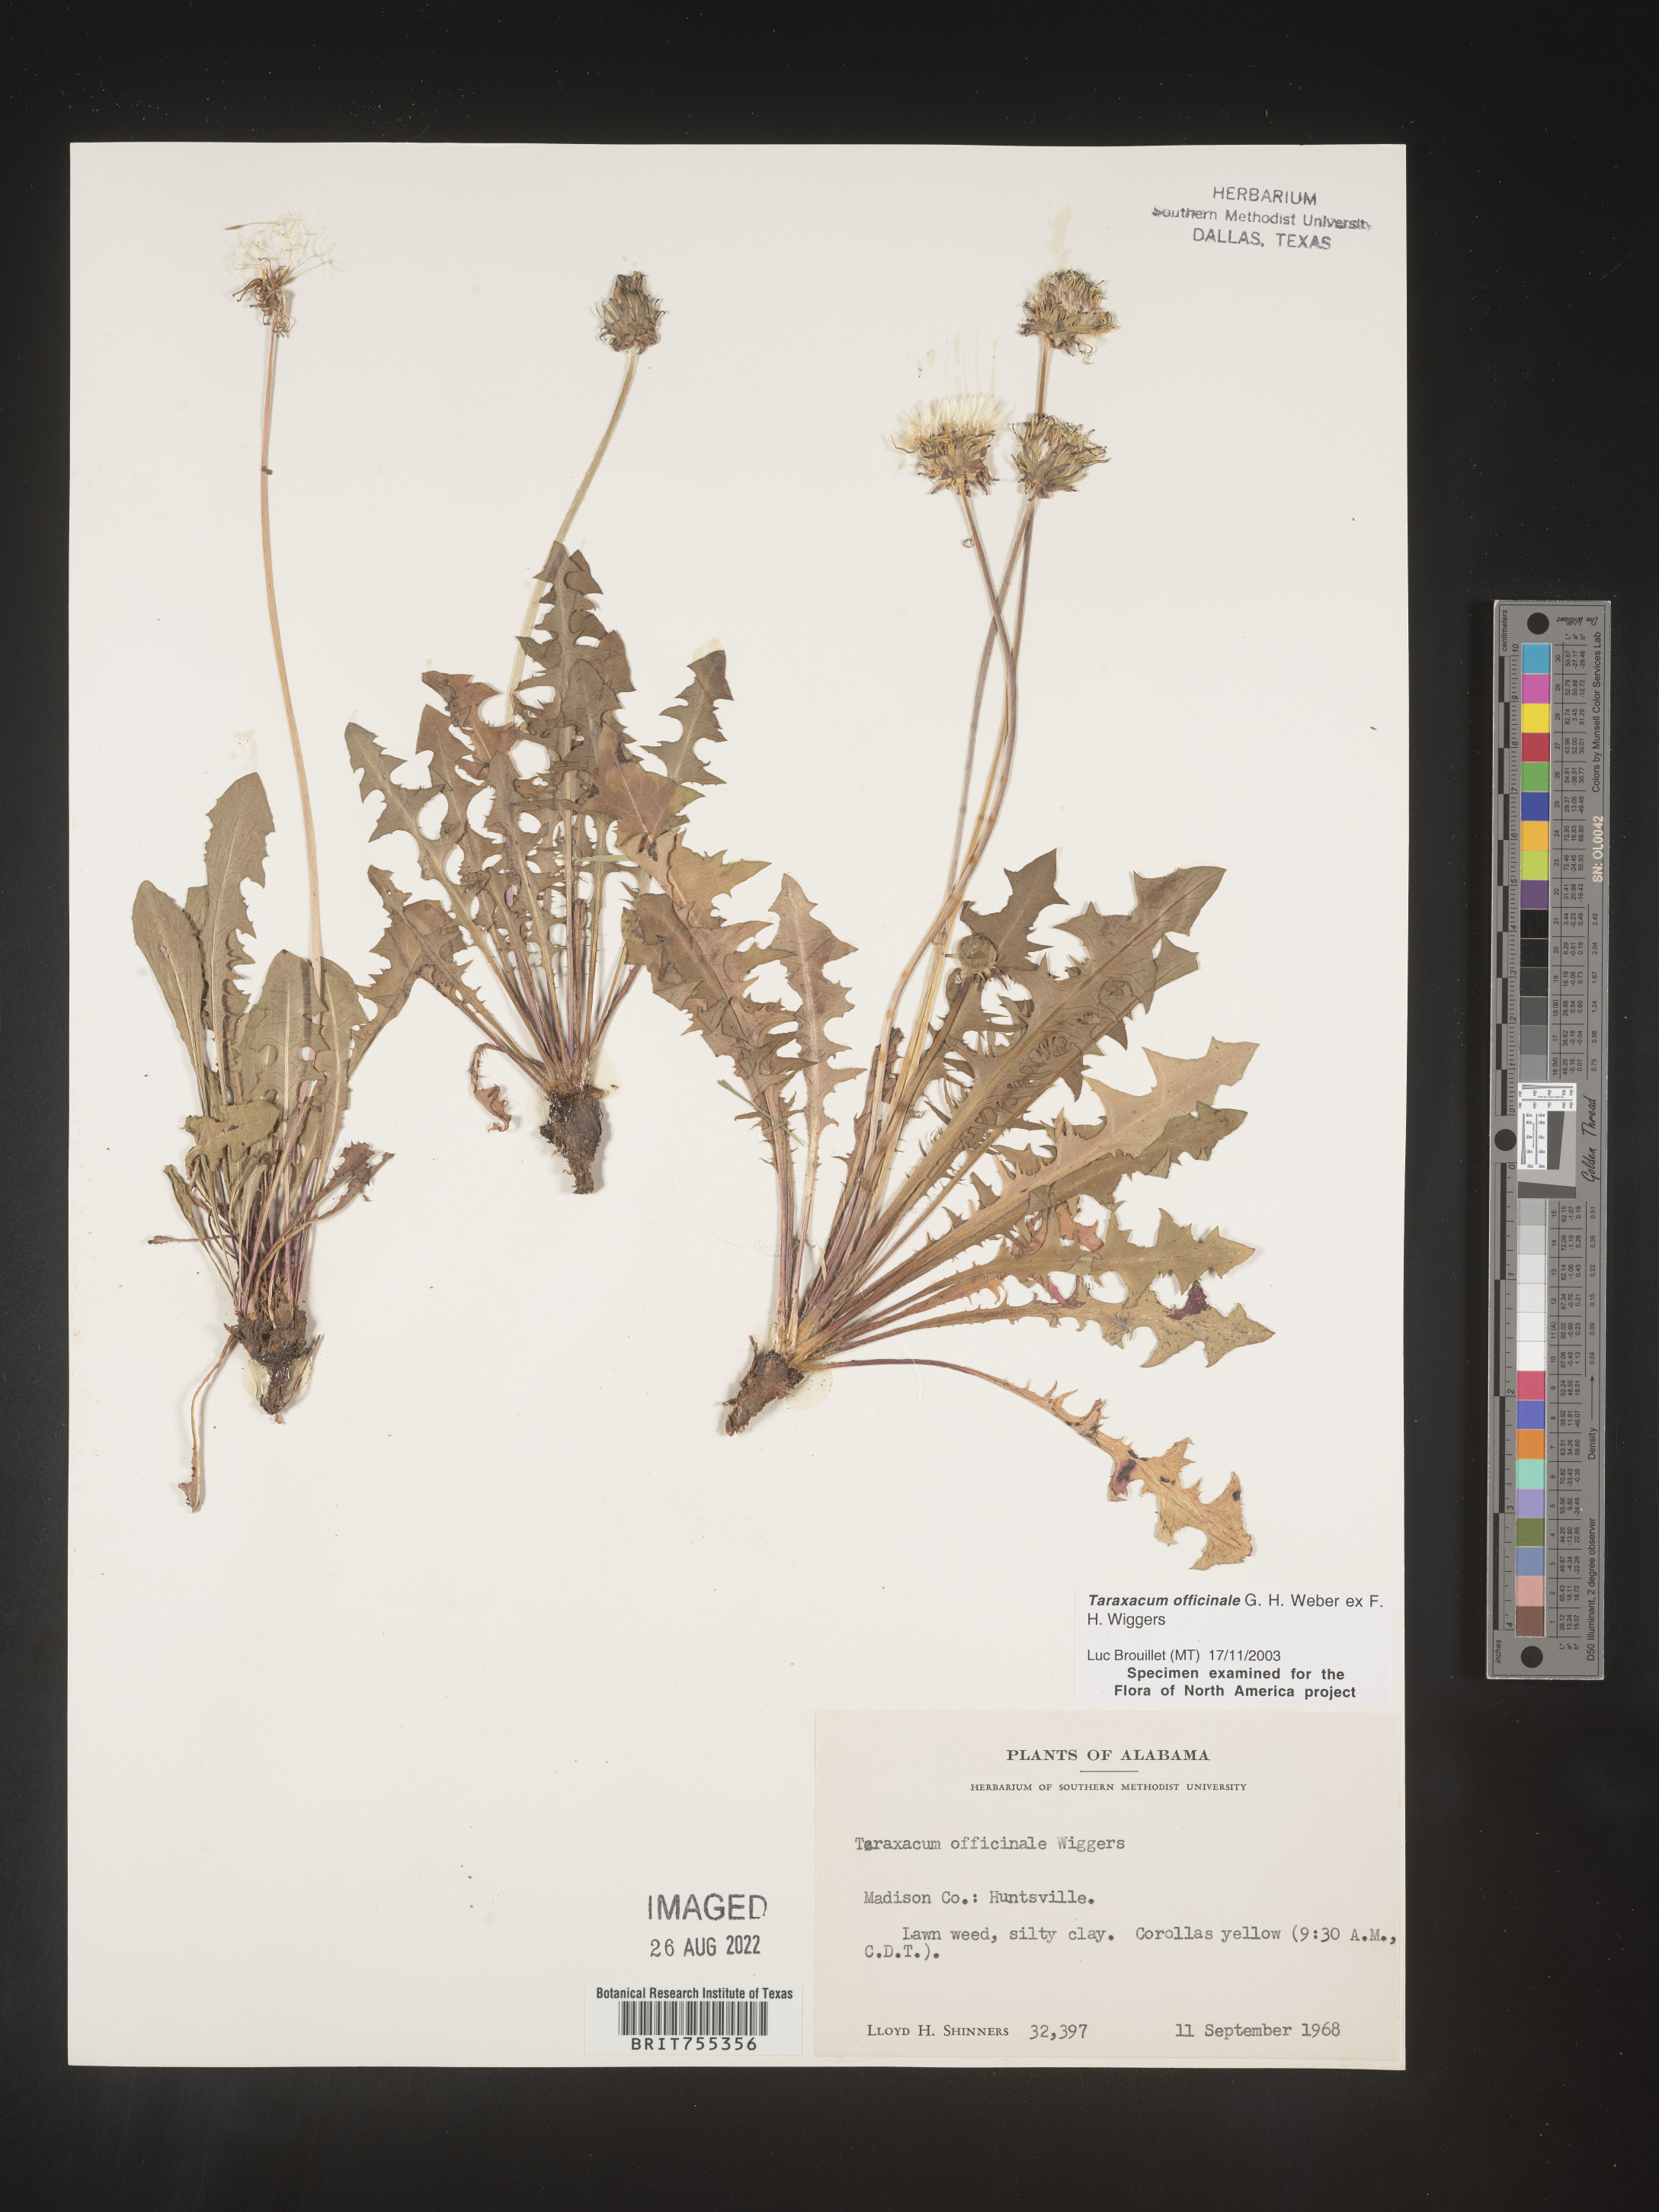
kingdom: Plantae
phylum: Tracheophyta
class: Magnoliopsida
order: Asterales
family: Asteraceae
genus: Taraxacum
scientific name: Taraxacum officinale
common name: Common dandelion
